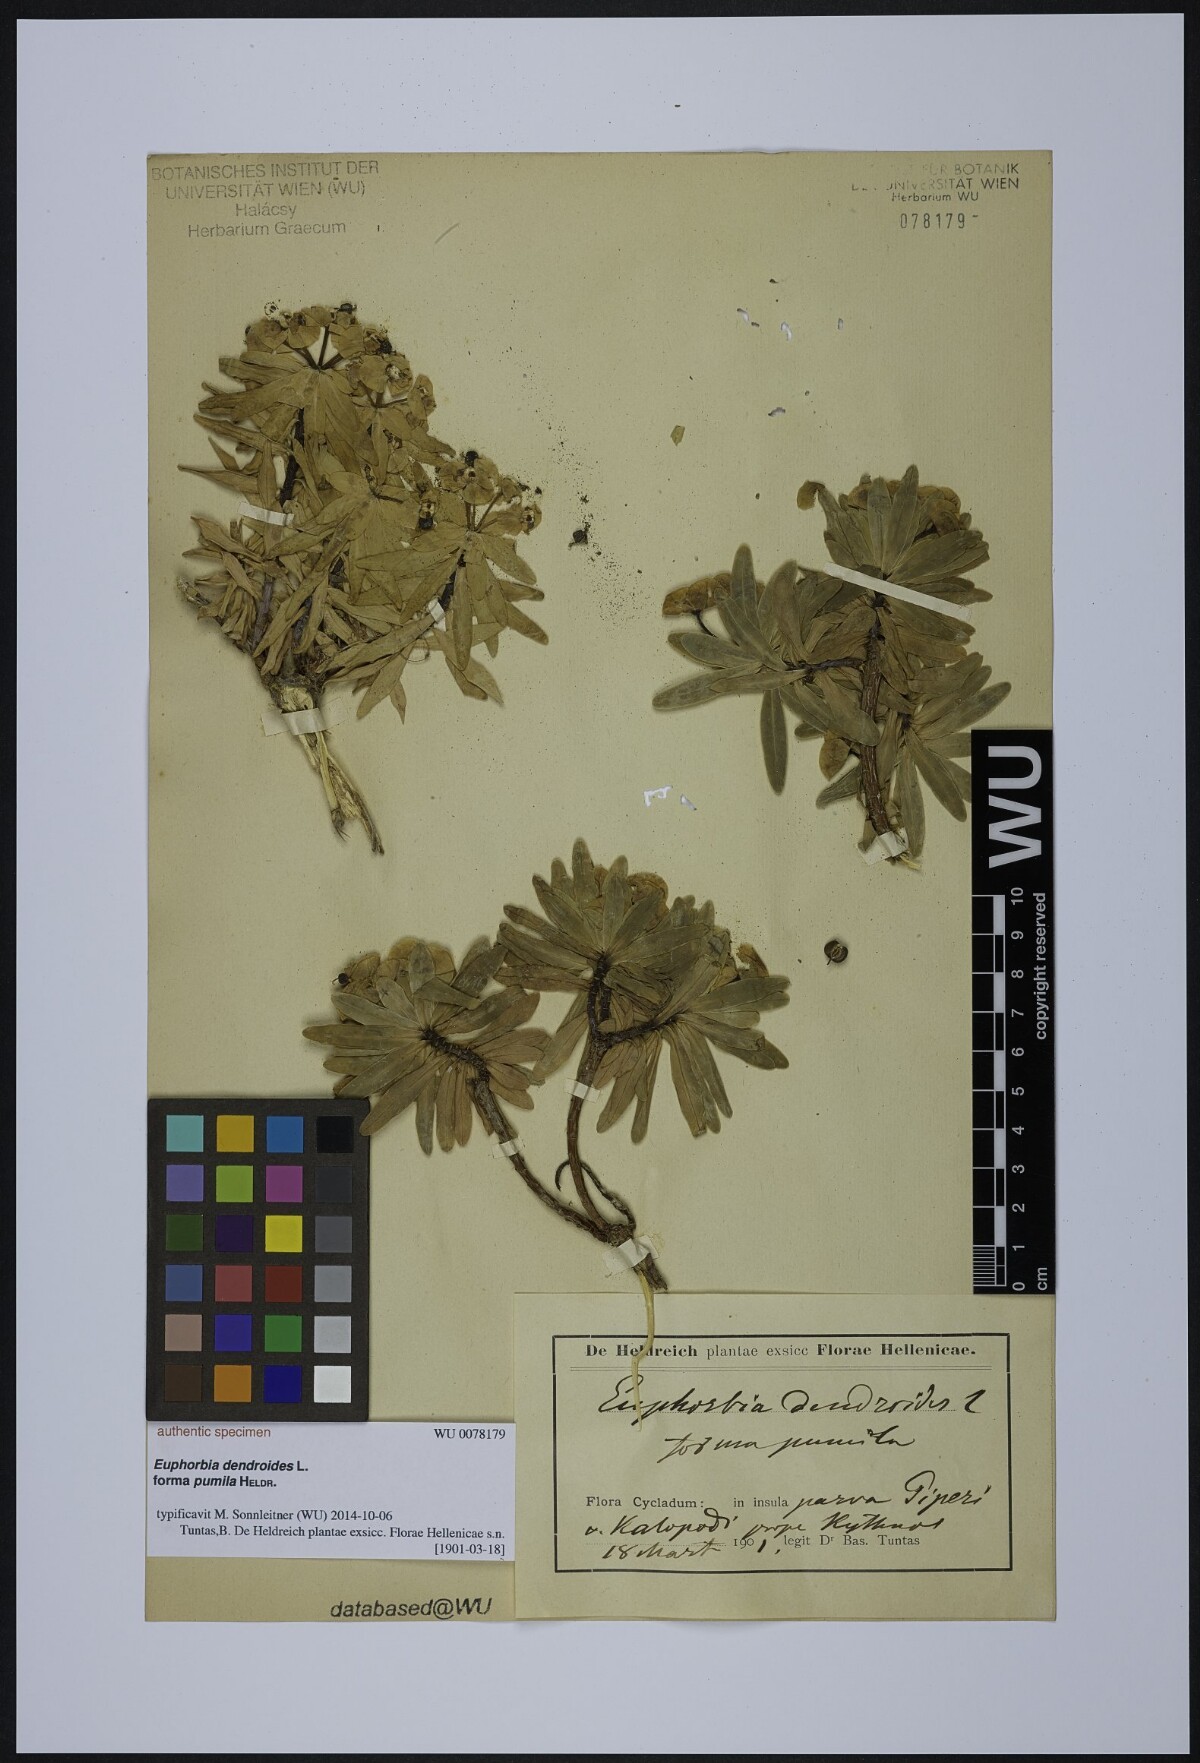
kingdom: Plantae
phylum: Tracheophyta
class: Magnoliopsida
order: Malpighiales
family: Euphorbiaceae
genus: Euphorbia
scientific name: Euphorbia dendroides
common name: Tree spurge
